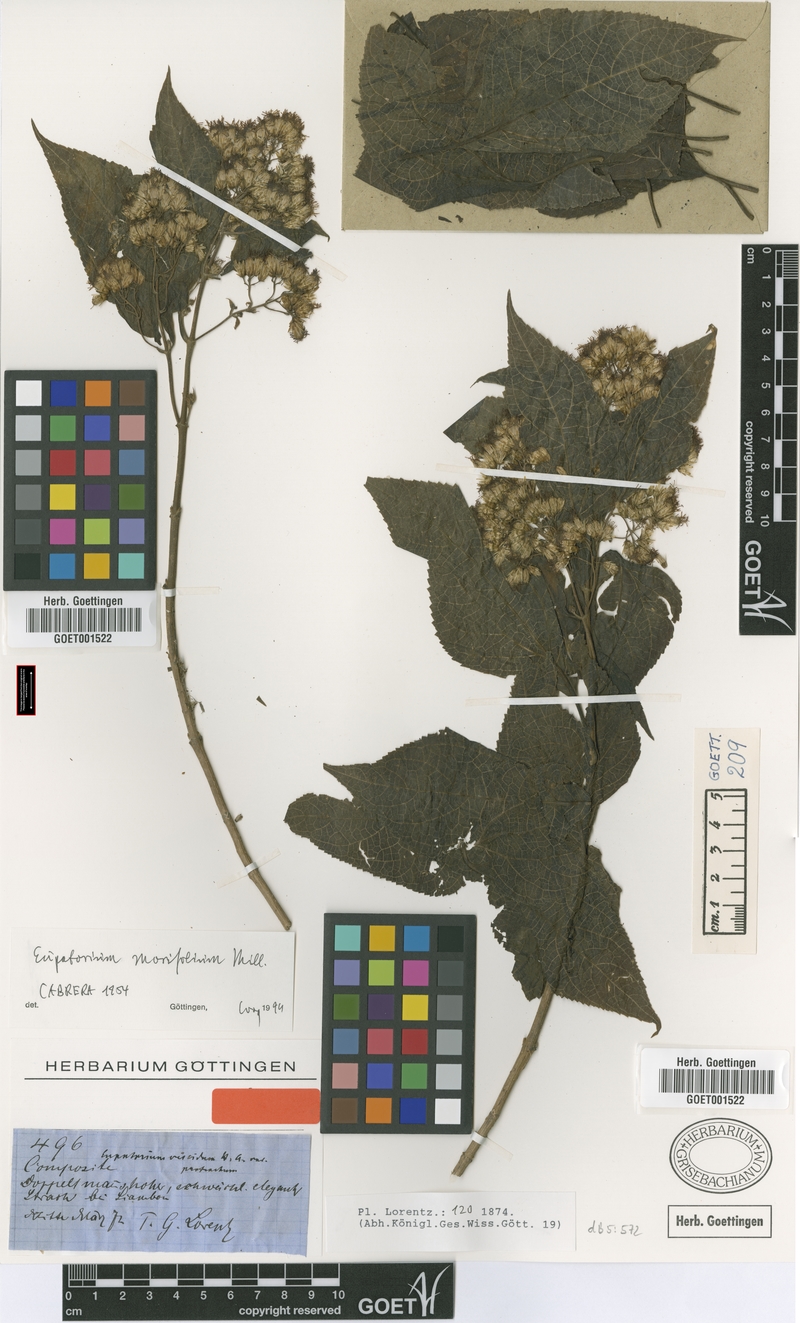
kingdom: Plantae
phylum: Tracheophyta
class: Magnoliopsida
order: Asterales
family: Asteraceae
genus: Critonia
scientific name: Critonia morifolia
